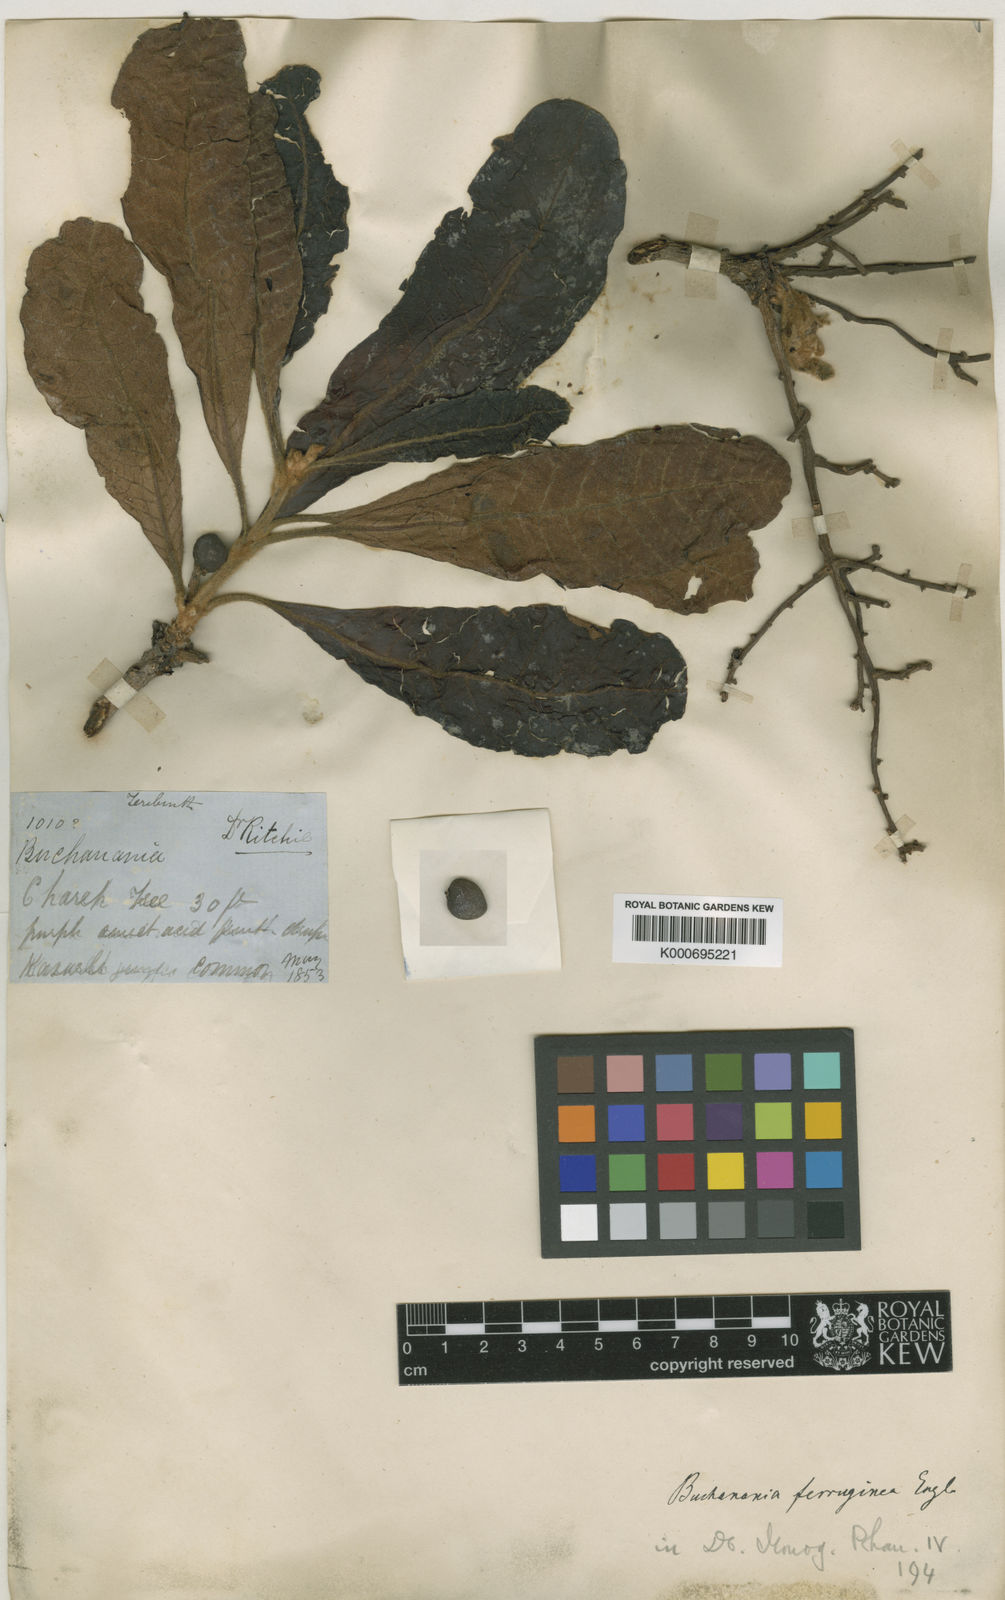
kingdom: Plantae
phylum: Tracheophyta
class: Magnoliopsida
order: Sapindales
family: Anacardiaceae
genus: Buchanania
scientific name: Buchanania ferruginea
